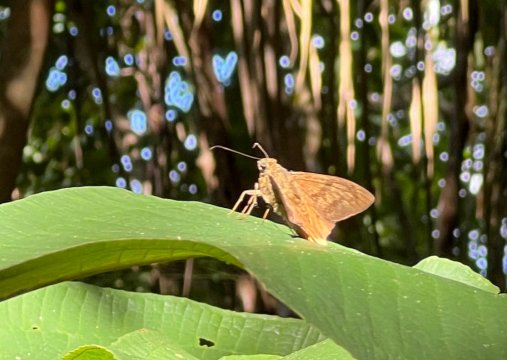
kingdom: Animalia
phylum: Arthropoda
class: Insecta
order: Lepidoptera
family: Hesperiidae
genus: Astraptes
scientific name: Astraptes anaphus
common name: Yellow-tipped Flasher
